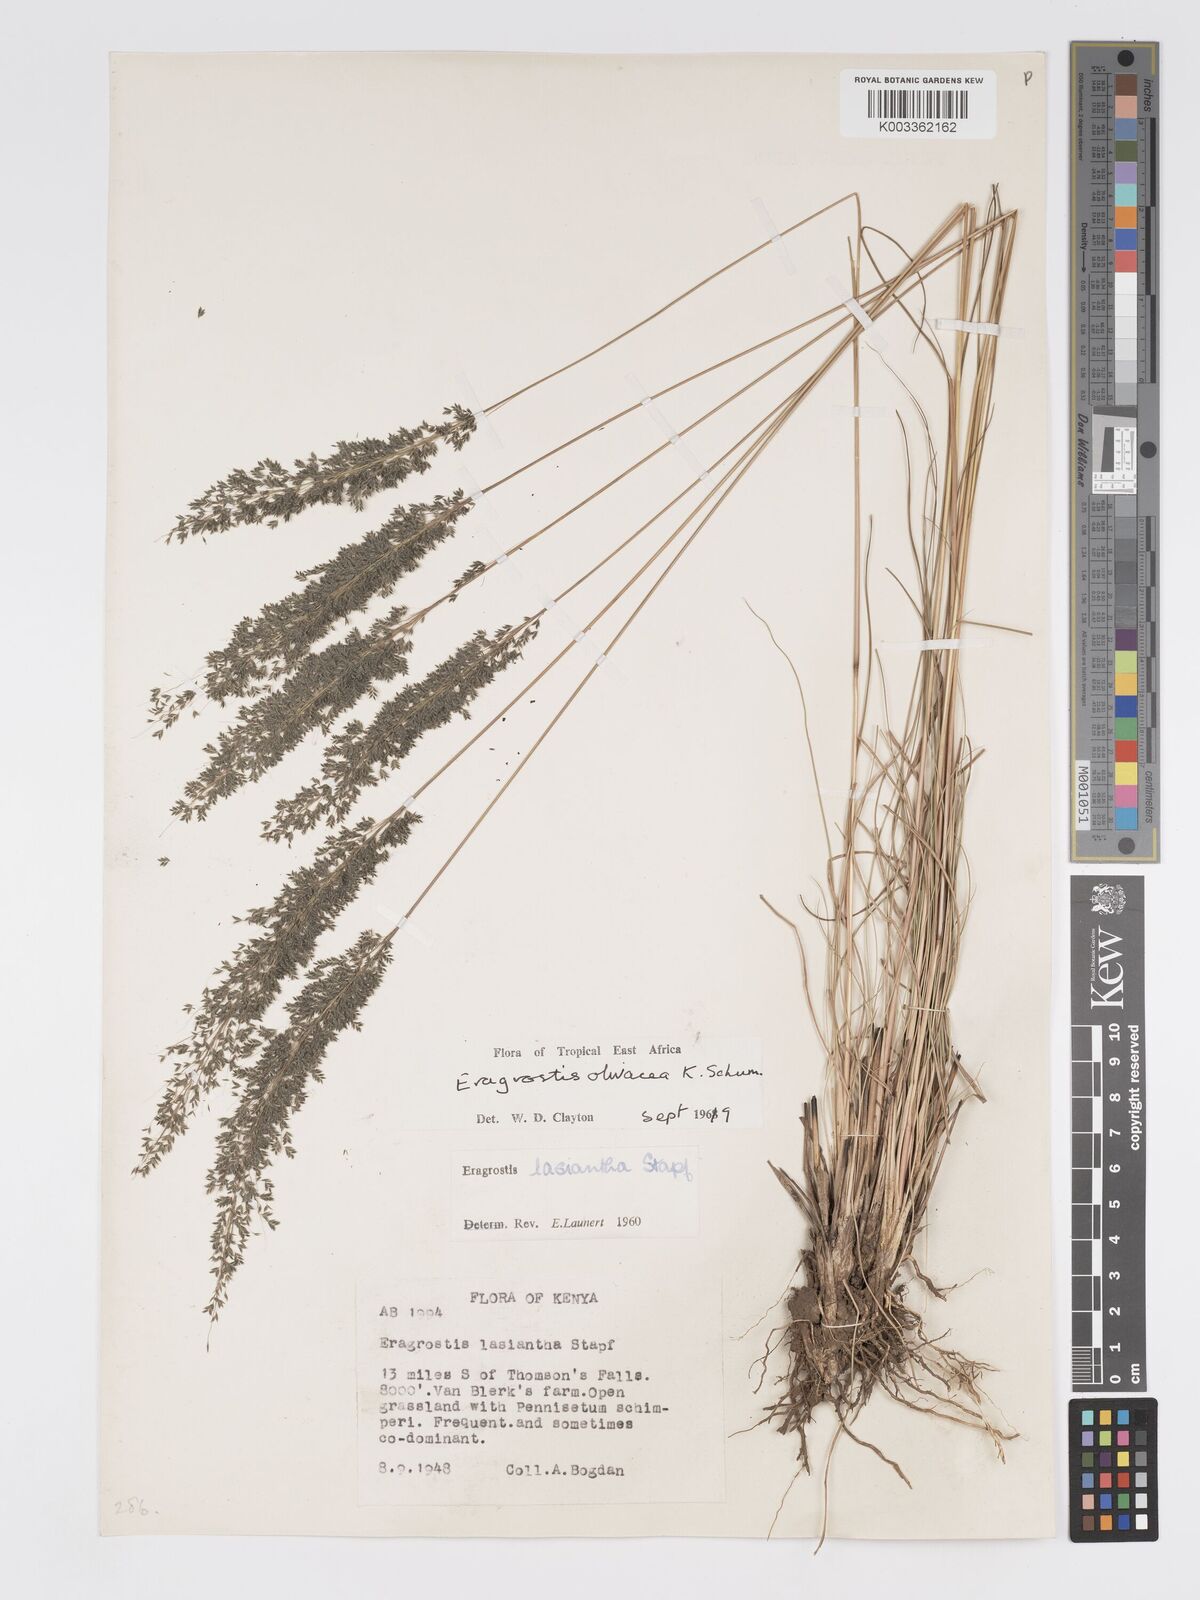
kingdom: Plantae
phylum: Tracheophyta
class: Liliopsida
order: Poales
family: Poaceae
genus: Eragrostis
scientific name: Eragrostis olivacea
